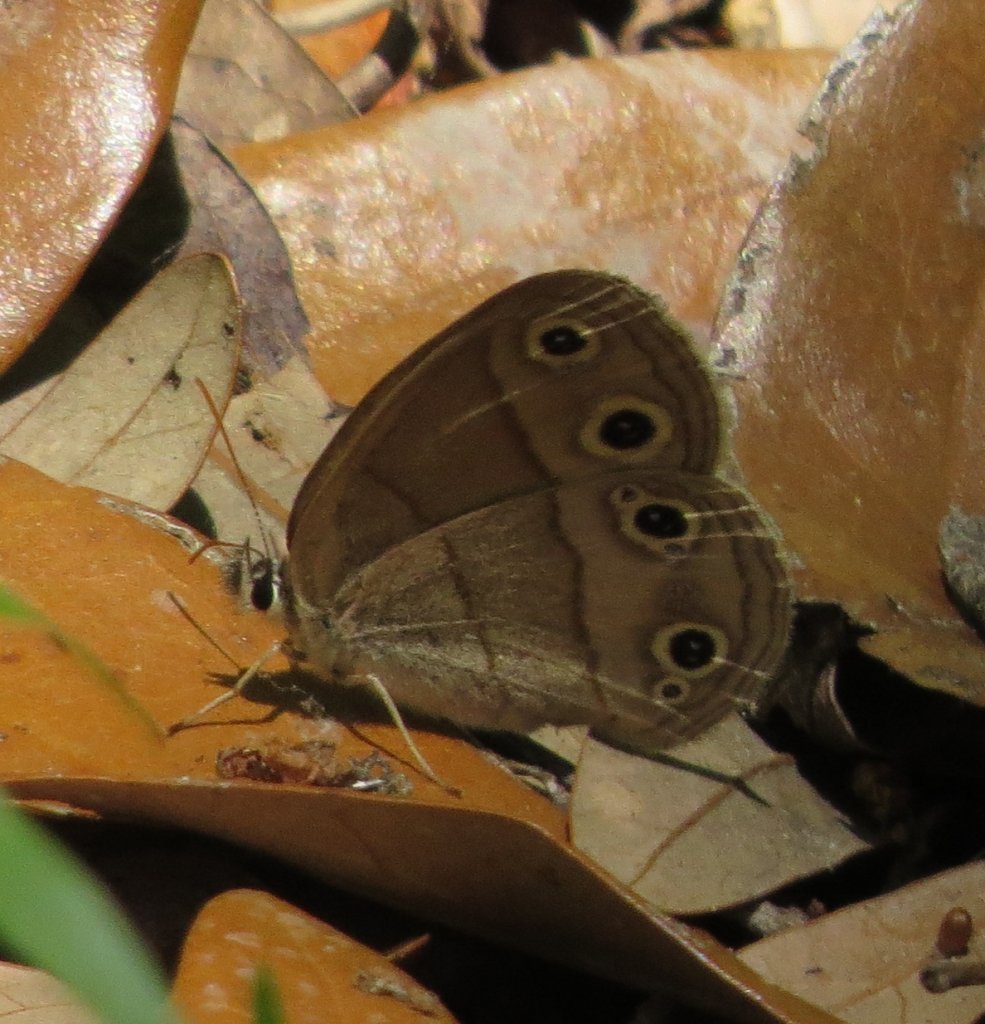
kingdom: Animalia
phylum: Arthropoda
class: Insecta
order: Lepidoptera
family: Nymphalidae
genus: Euptychia
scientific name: Euptychia cymela
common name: Little Wood Satyr
